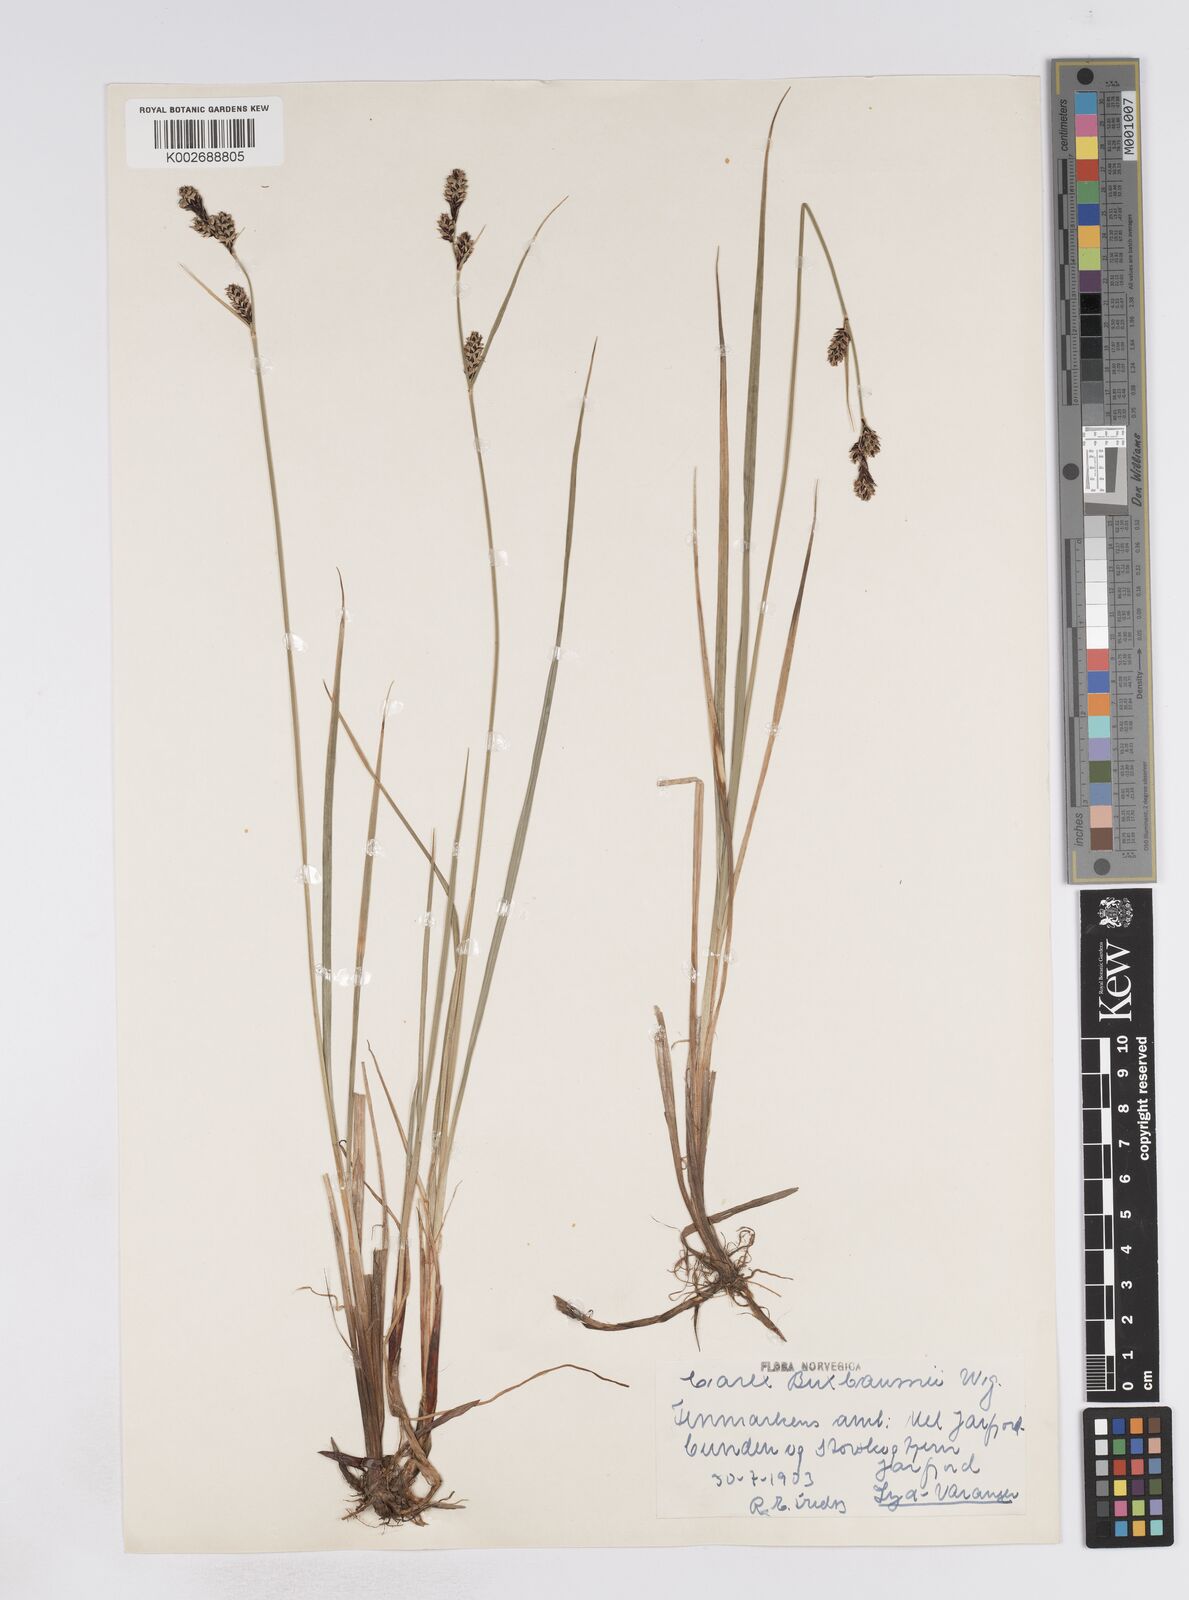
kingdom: Plantae
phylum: Tracheophyta
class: Liliopsida
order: Poales
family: Cyperaceae
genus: Carex
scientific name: Carex buxbaumii
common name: Club sedge
